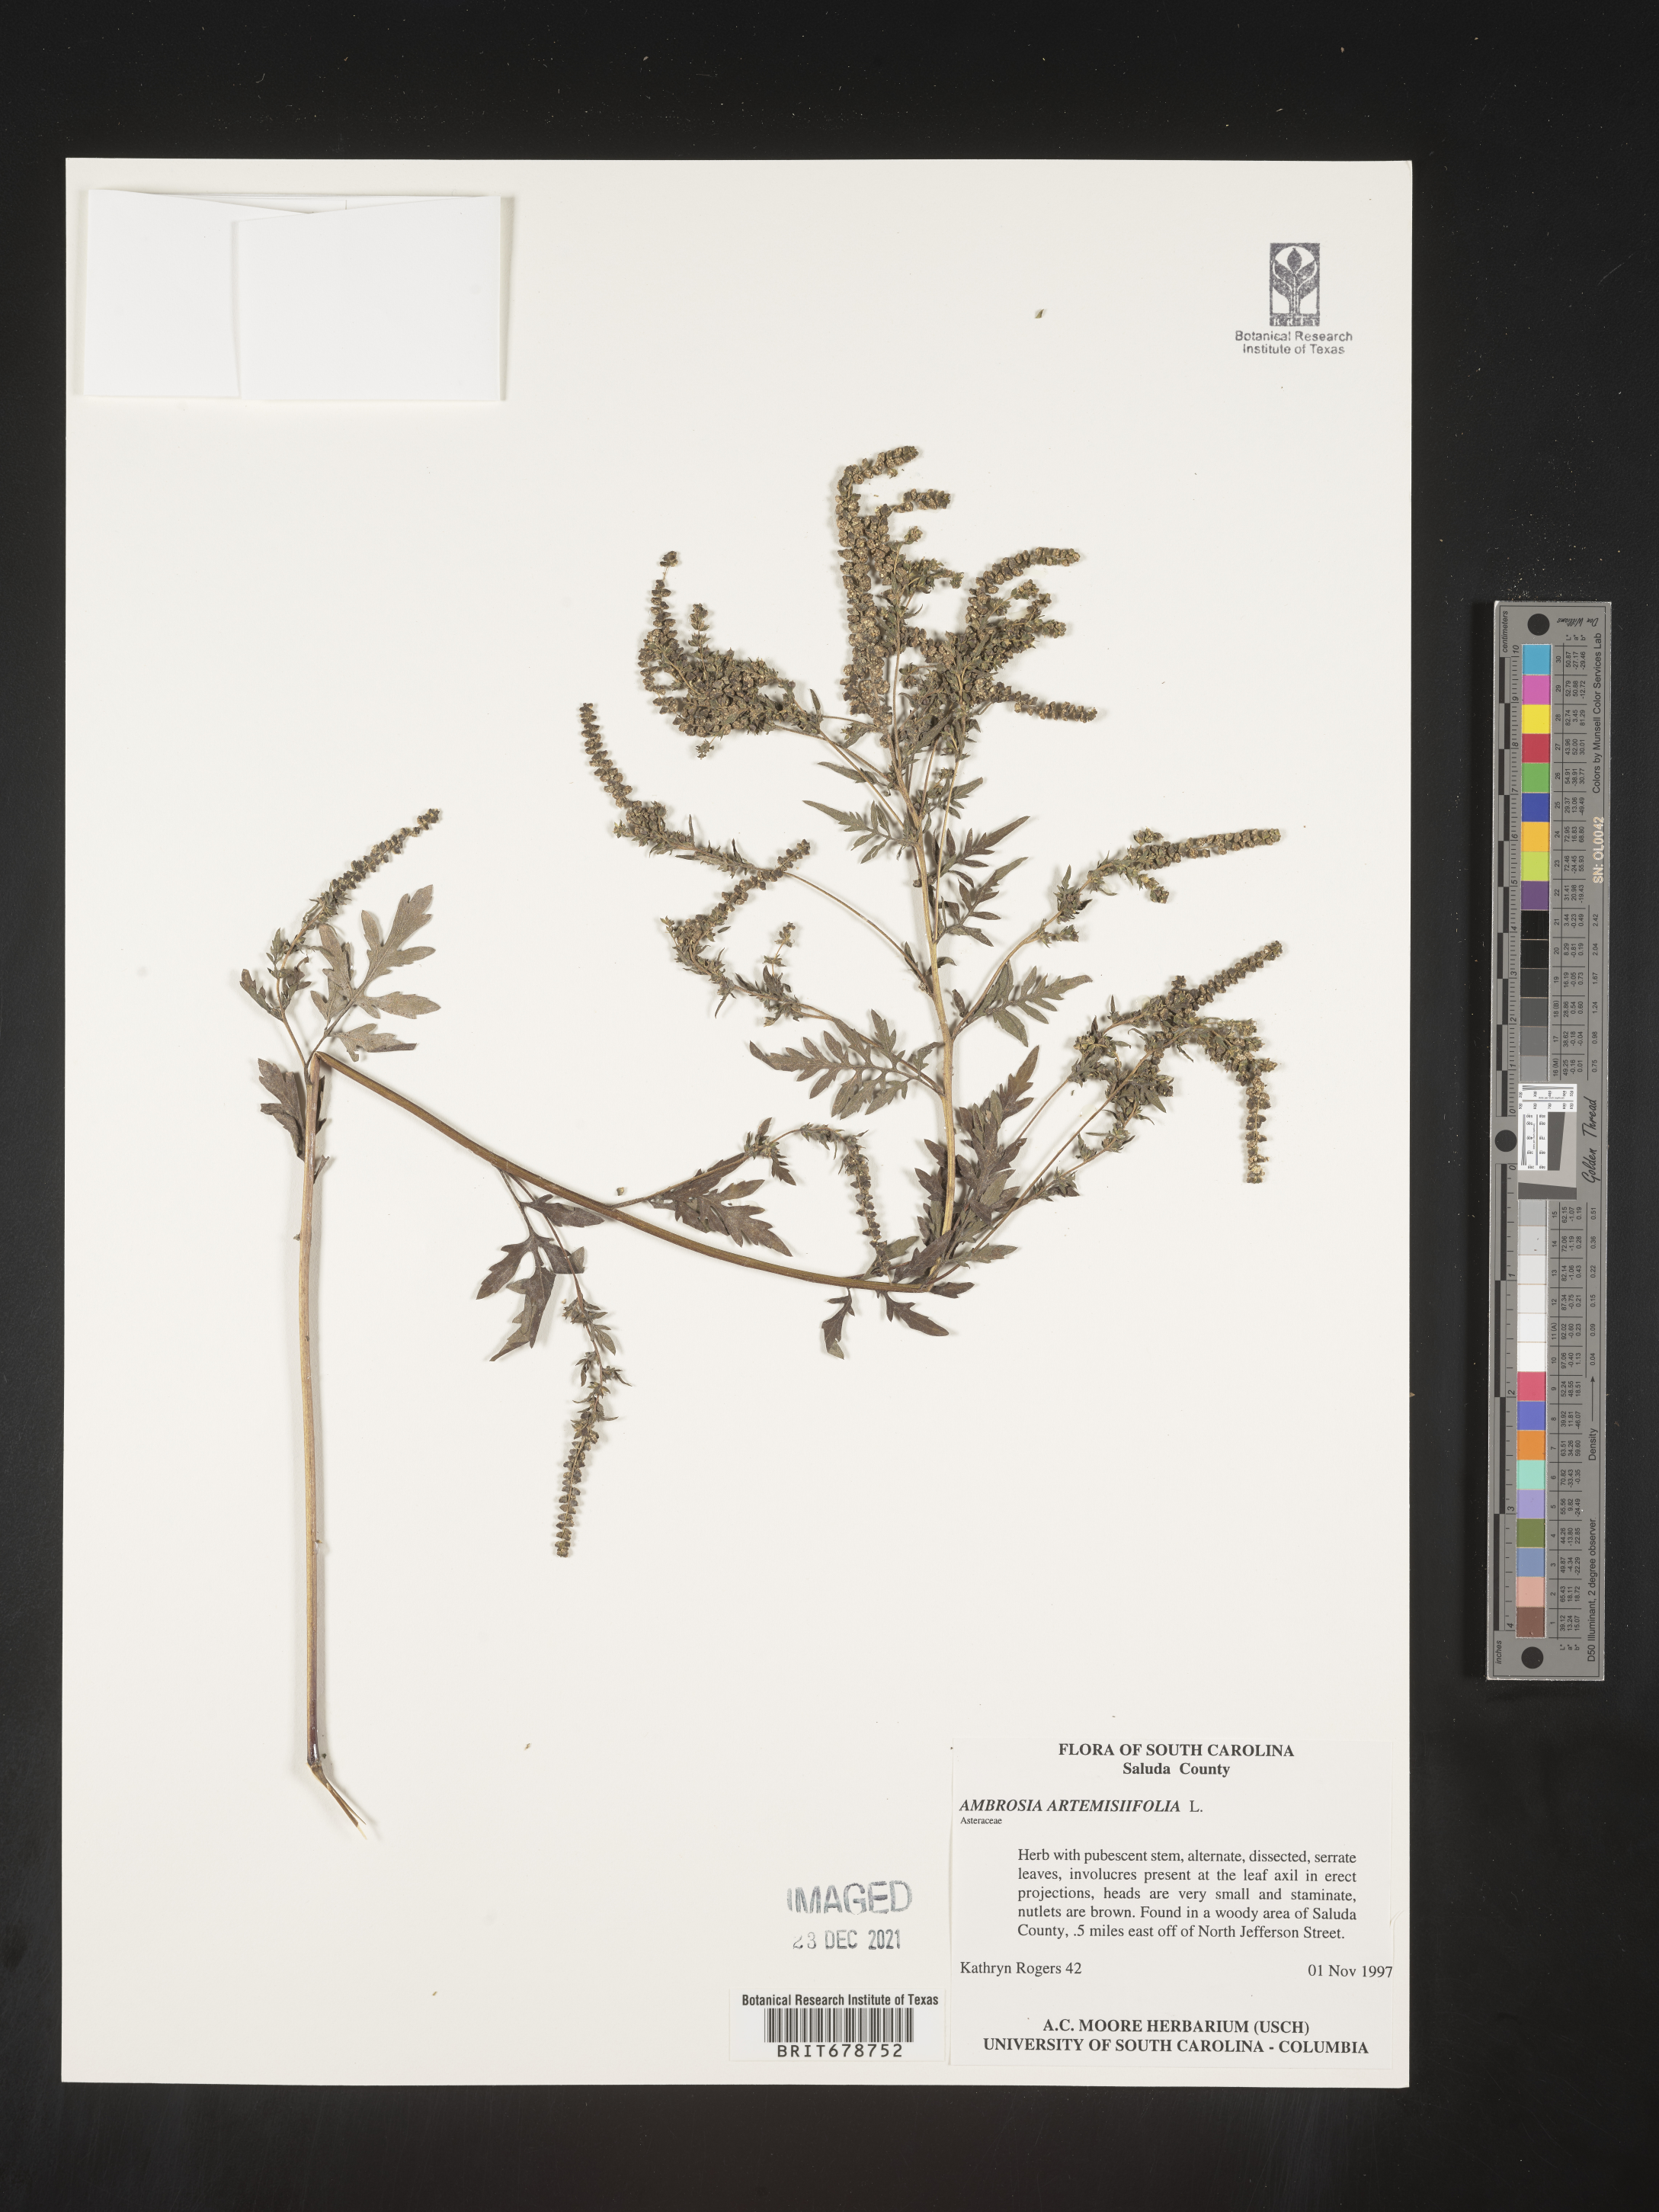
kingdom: Plantae
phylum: Tracheophyta
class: Magnoliopsida
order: Asterales
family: Asteraceae
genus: Ambrosia
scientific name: Ambrosia artemisiifolia
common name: Annual ragweed
